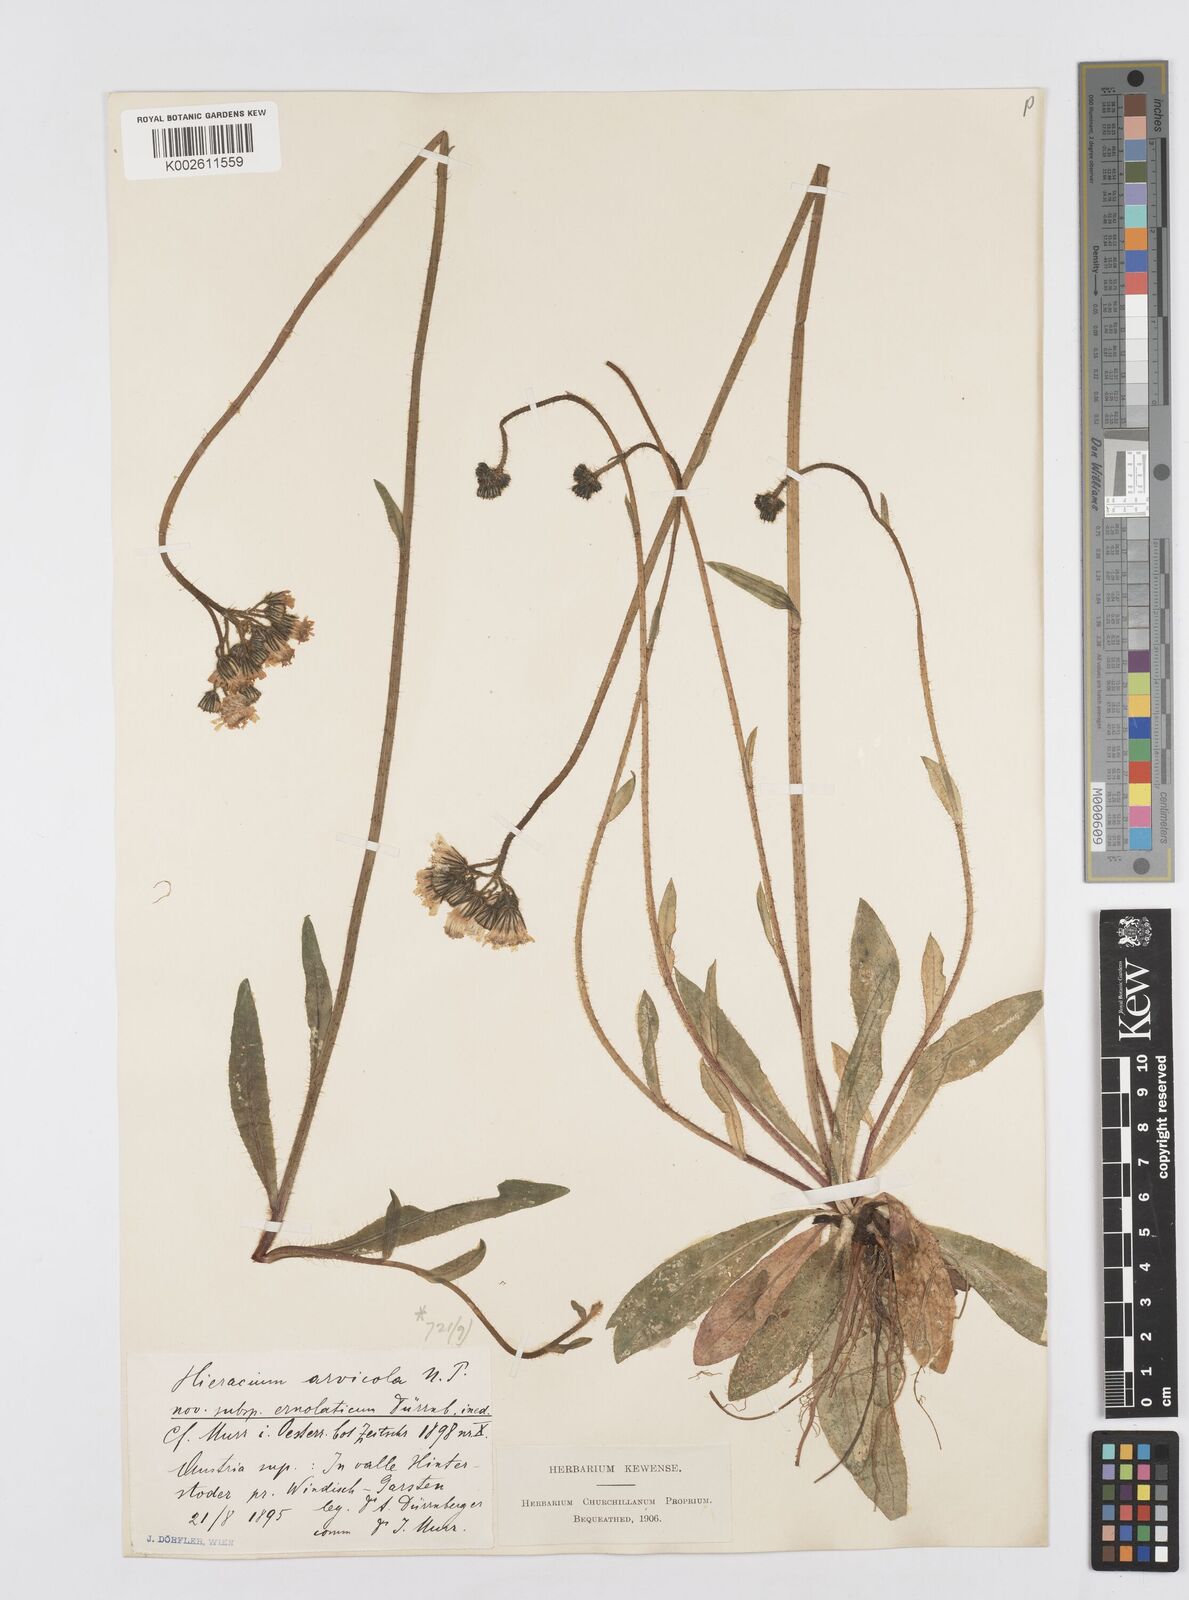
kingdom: Plantae
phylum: Tracheophyta
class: Magnoliopsida
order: Asterales
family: Asteraceae
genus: Pilosella
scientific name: Pilosella erythrochrista
